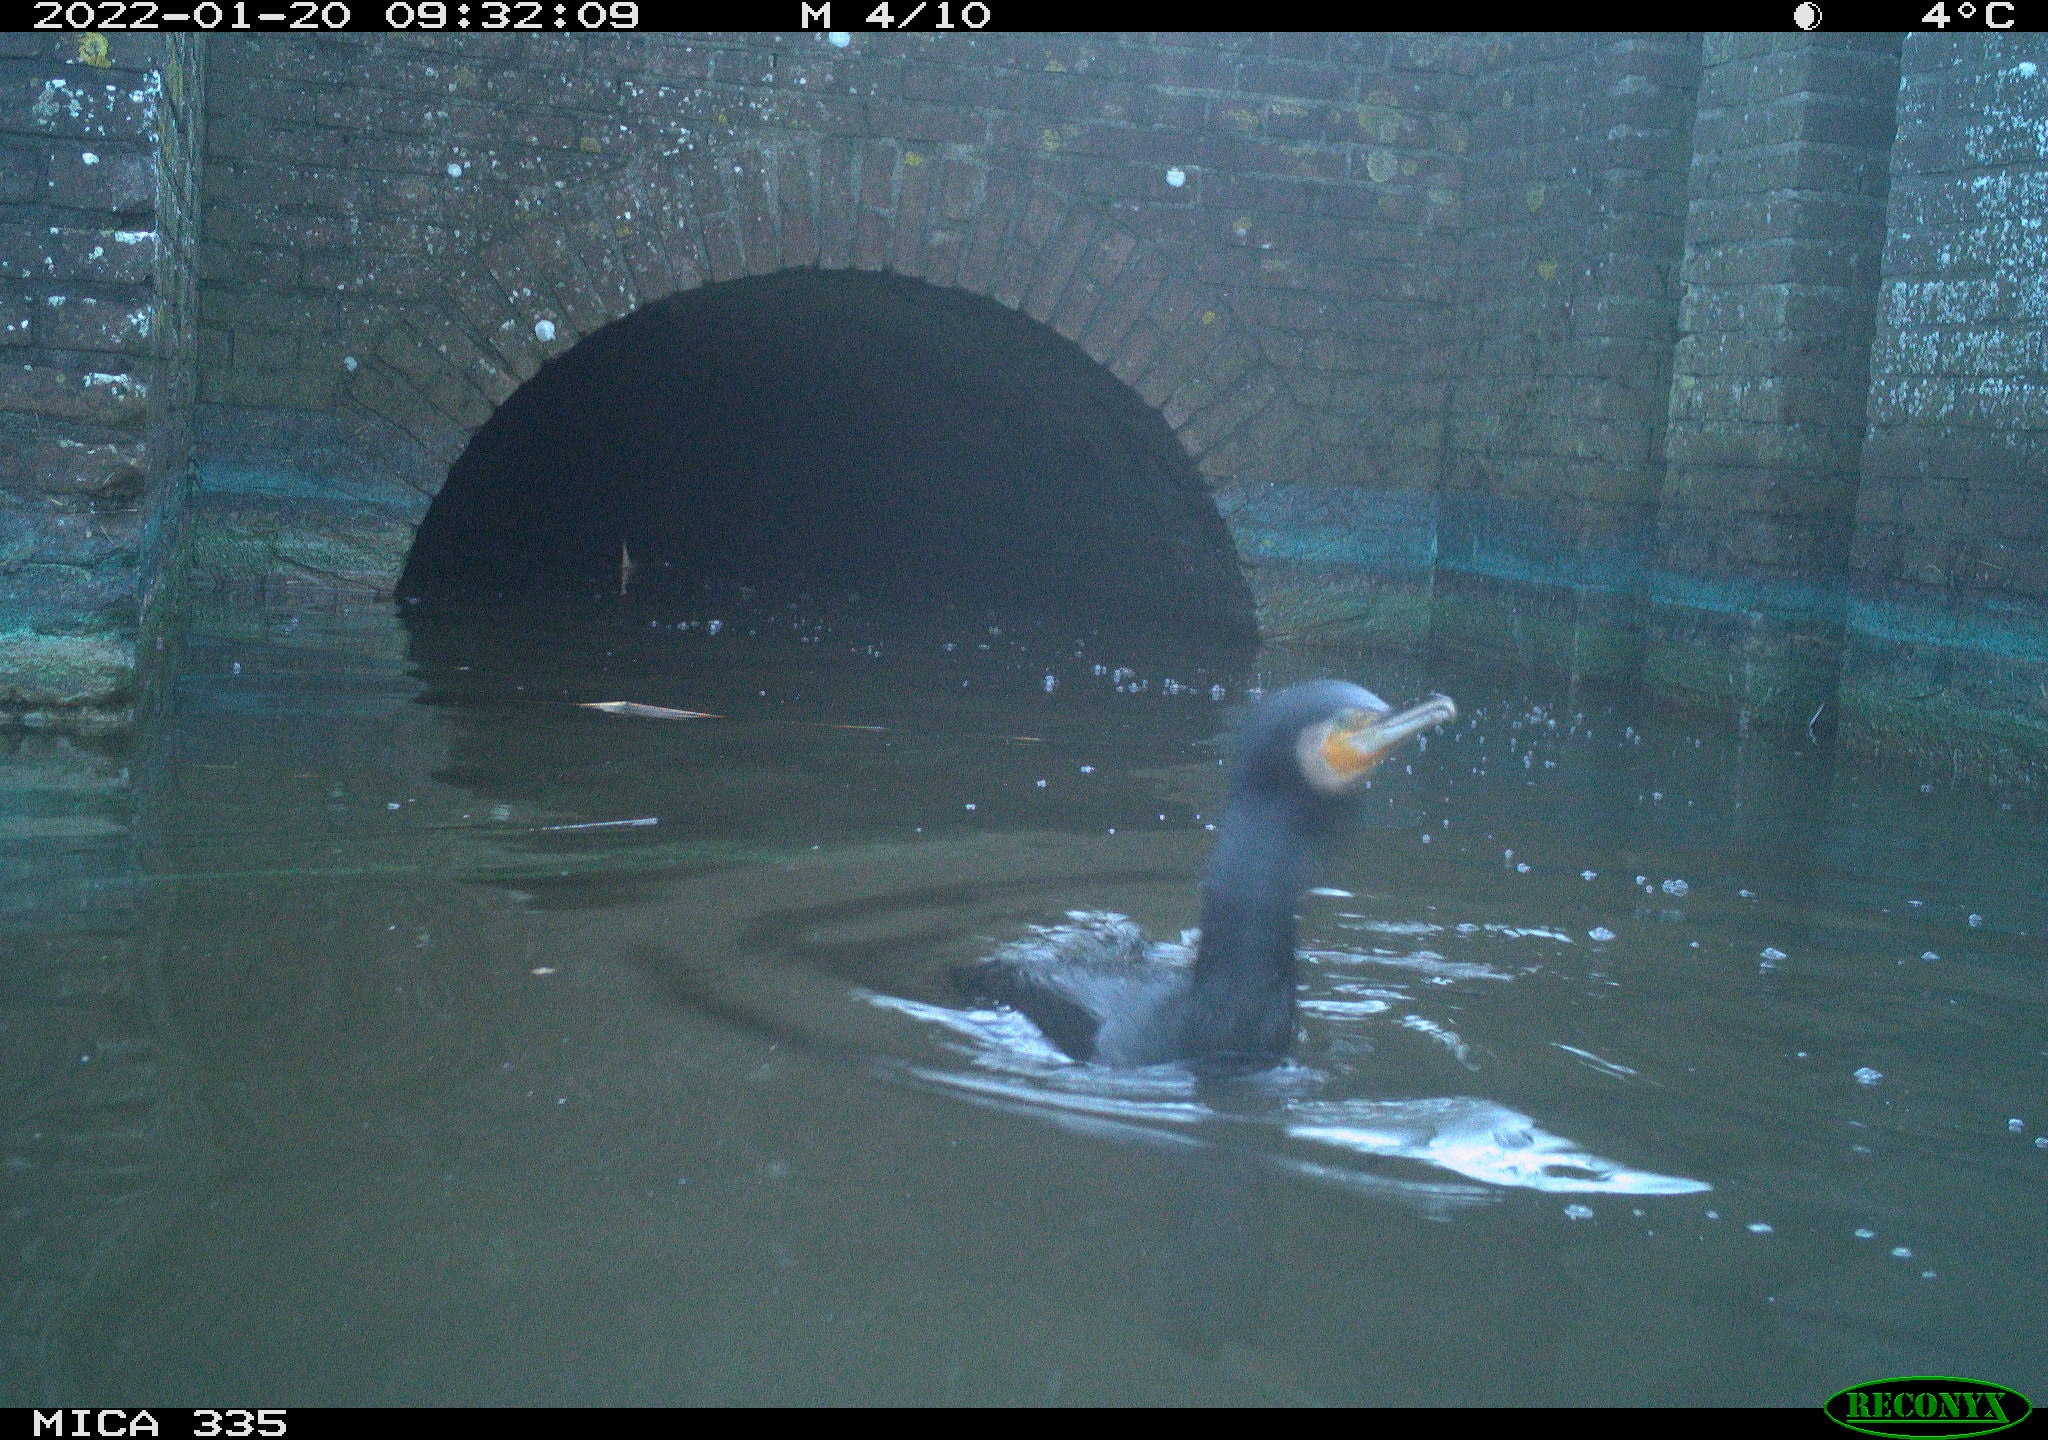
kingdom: Animalia
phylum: Chordata
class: Aves
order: Suliformes
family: Phalacrocoracidae
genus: Phalacrocorax
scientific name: Phalacrocorax carbo
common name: Great cormorant
